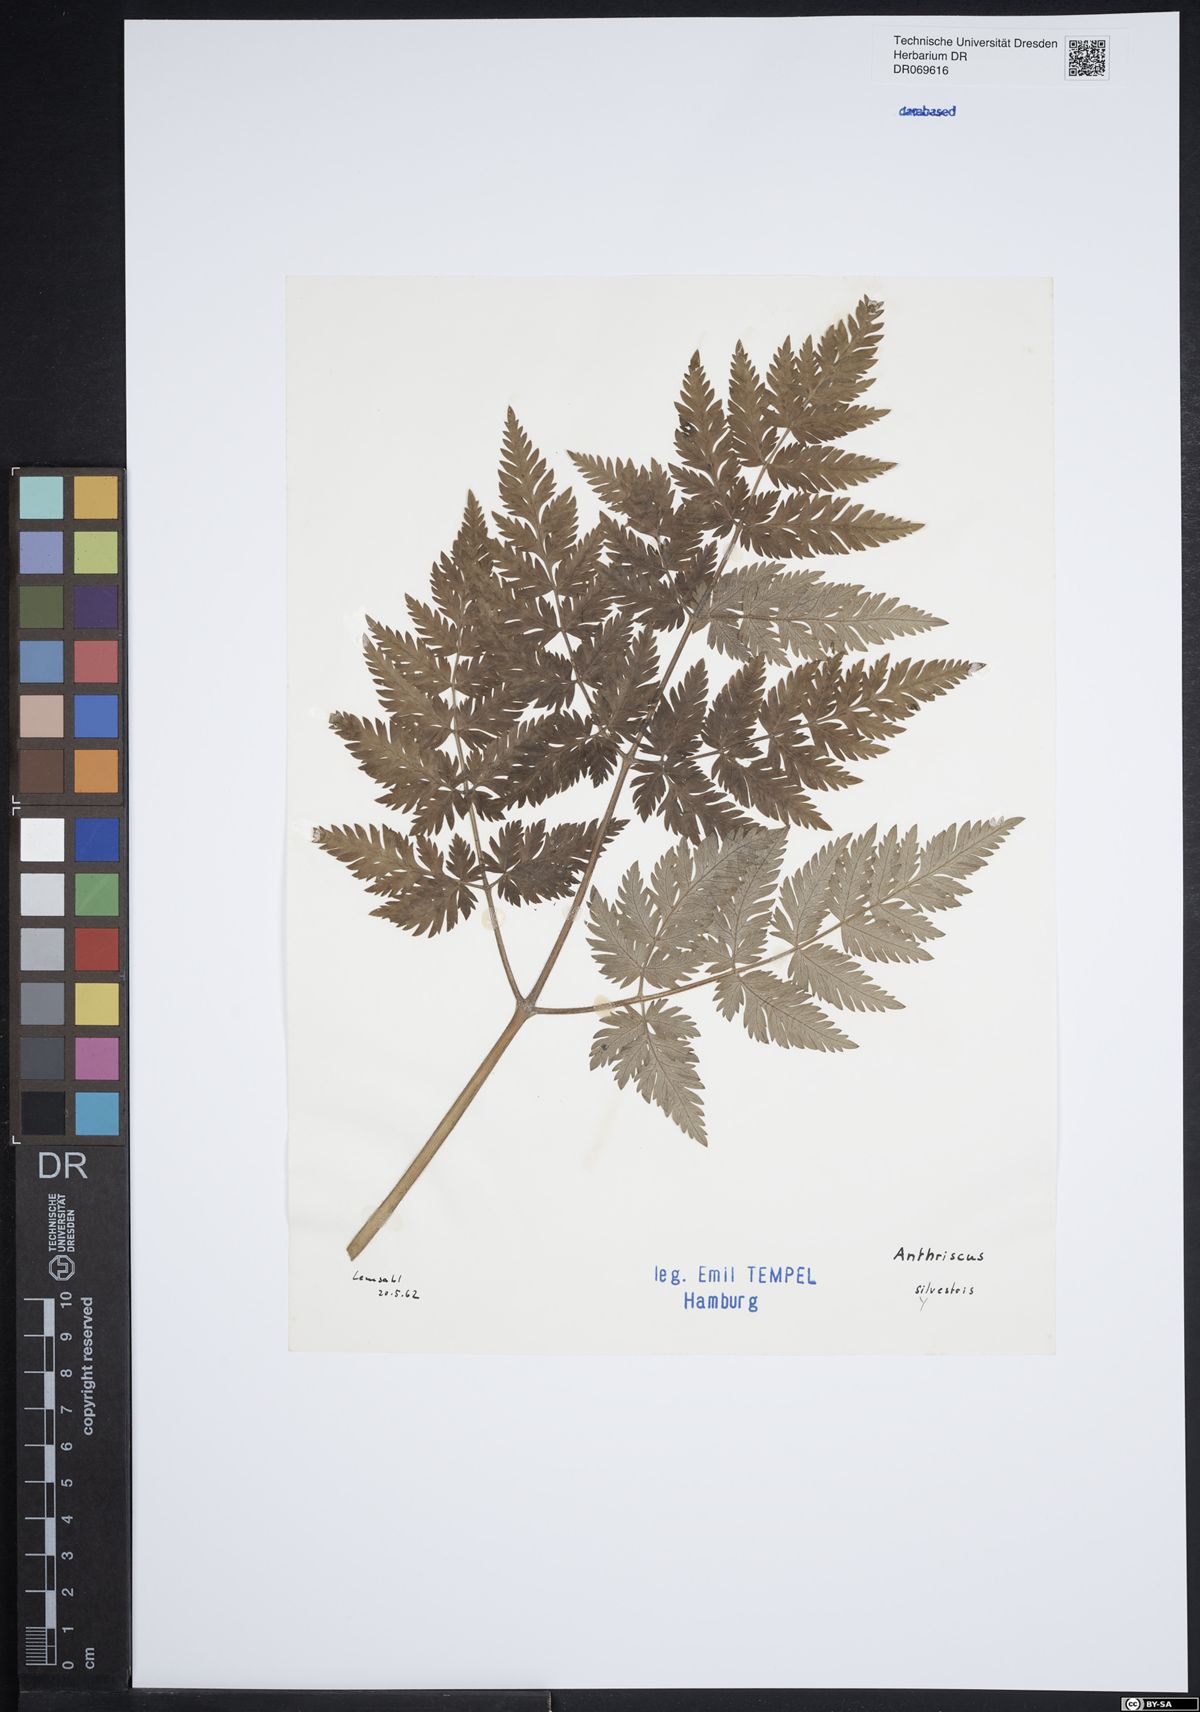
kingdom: Plantae
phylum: Tracheophyta
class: Magnoliopsida
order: Apiales
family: Apiaceae
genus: Anthriscus
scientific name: Anthriscus sylvestris
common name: Cow parsley
